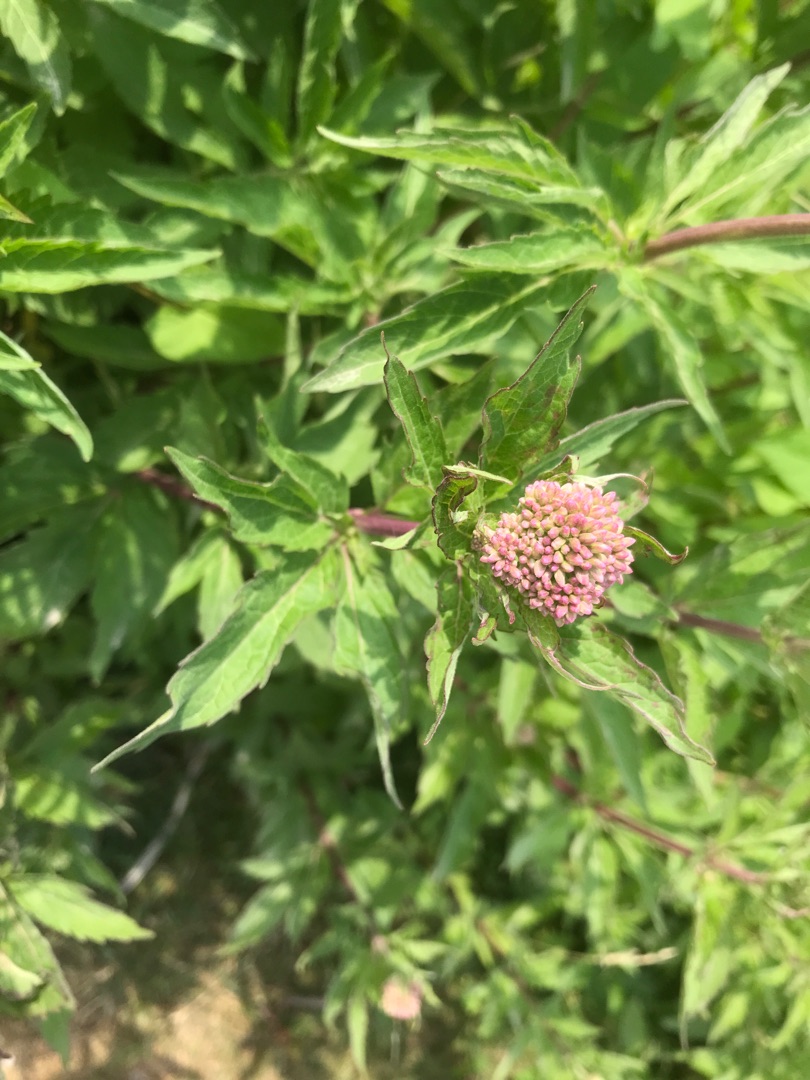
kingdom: Plantae
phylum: Tracheophyta
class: Magnoliopsida
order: Asterales
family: Asteraceae
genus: Eupatorium
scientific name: Eupatorium cannabinum
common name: Hjortetrøst
